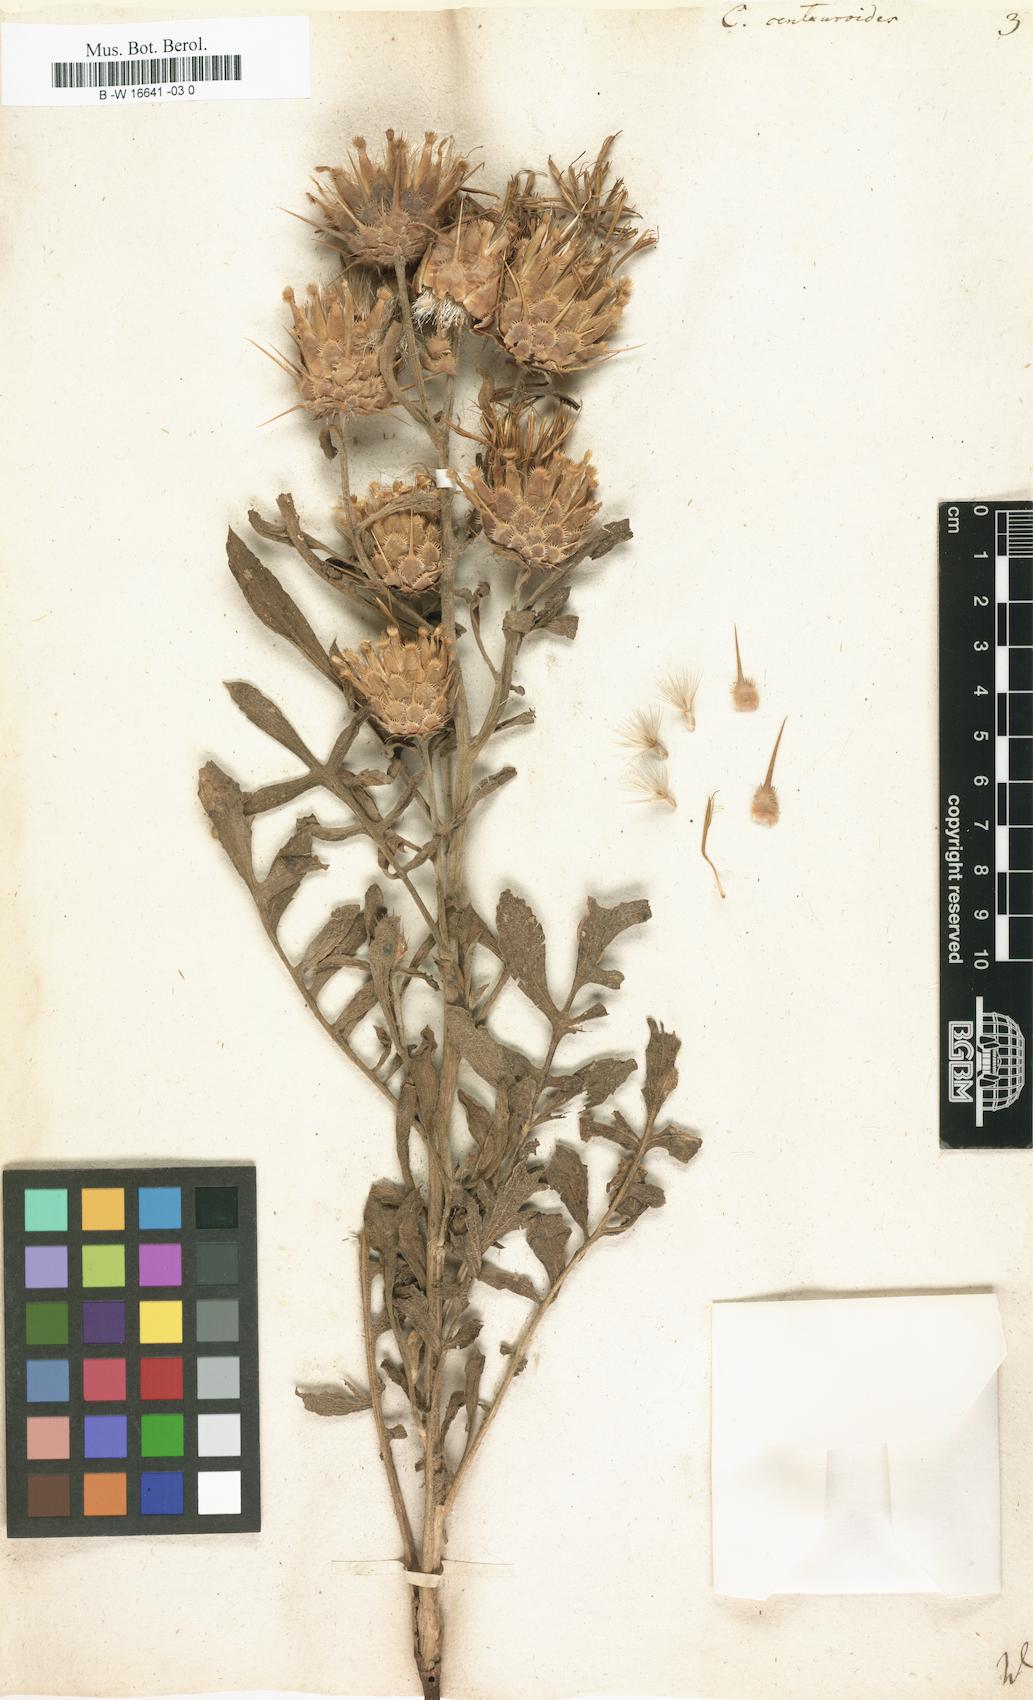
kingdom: Plantae
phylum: Tracheophyta
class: Magnoliopsida
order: Asterales
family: Asteraceae
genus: Centaurea
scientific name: Centaurea centauroides
